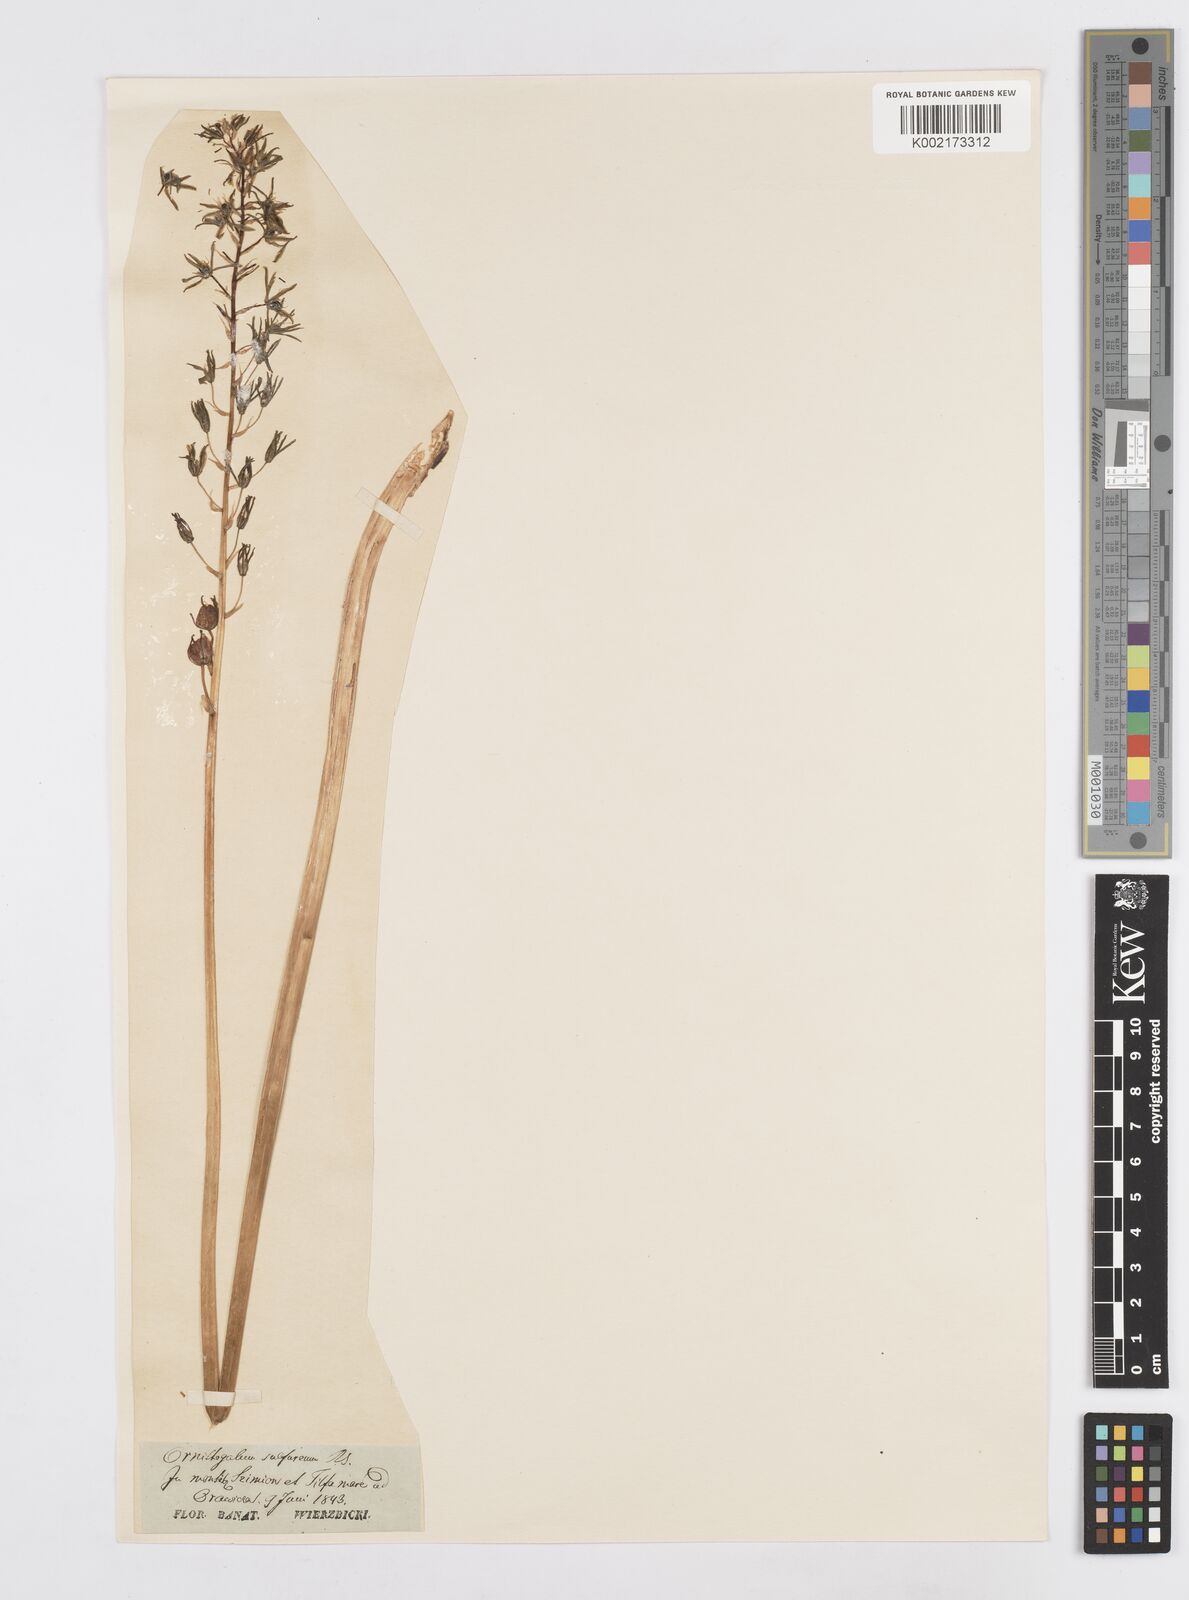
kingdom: Plantae
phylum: Tracheophyta
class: Liliopsida
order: Asparagales
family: Asparagaceae
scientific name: Asparagaceae
